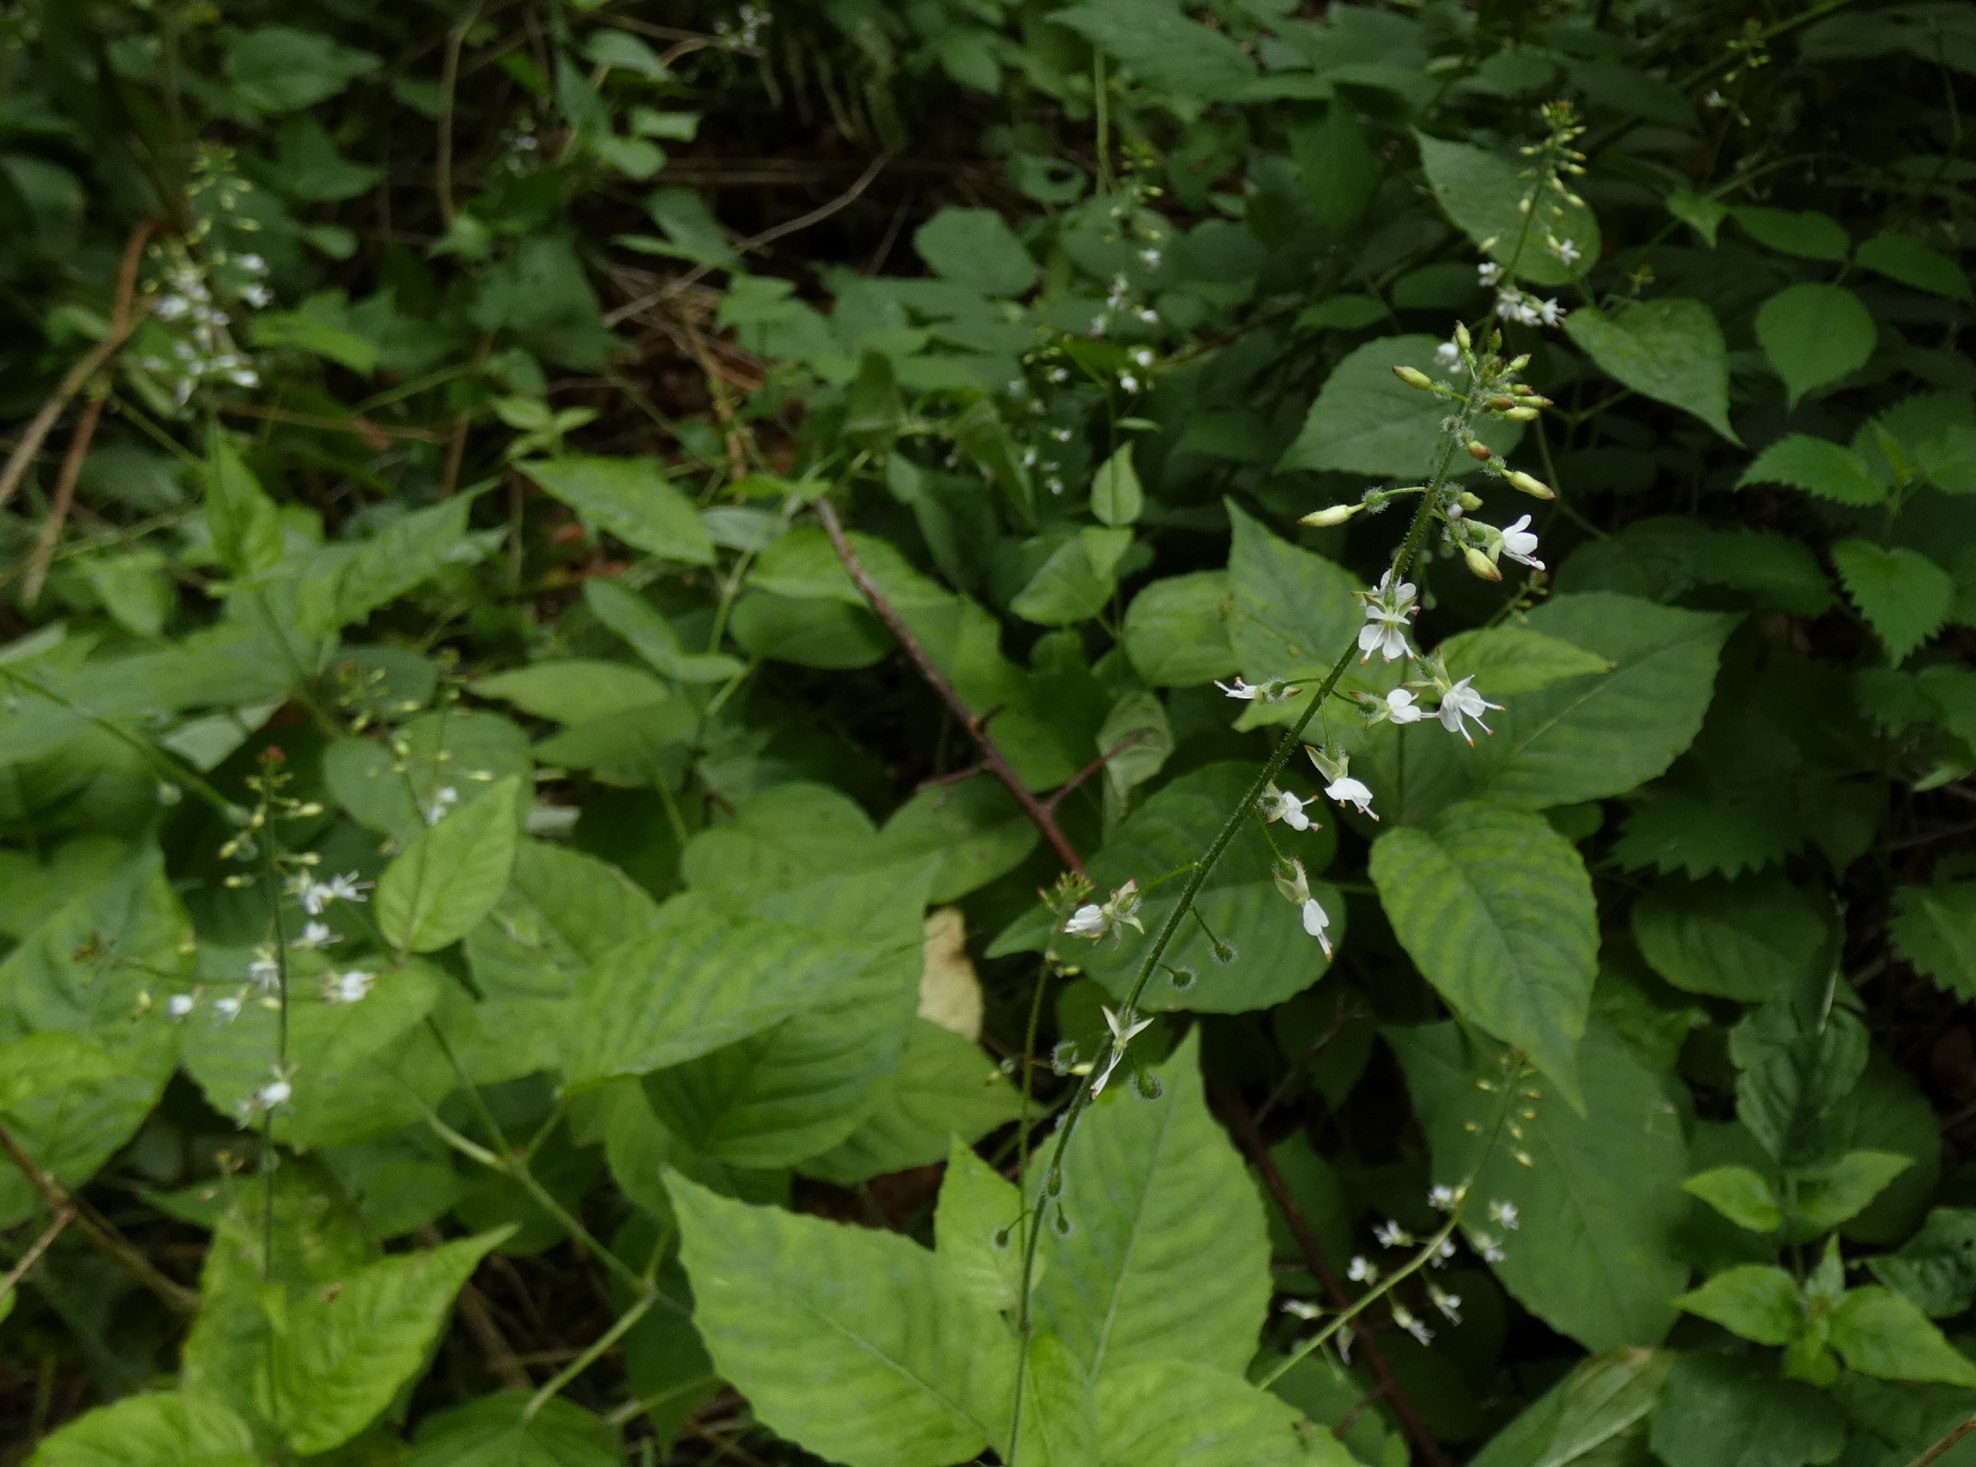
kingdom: Plantae
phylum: Tracheophyta
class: Magnoliopsida
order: Myrtales
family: Onagraceae
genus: Circaea
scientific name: Circaea lutetiana
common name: Dunet steffensurt
